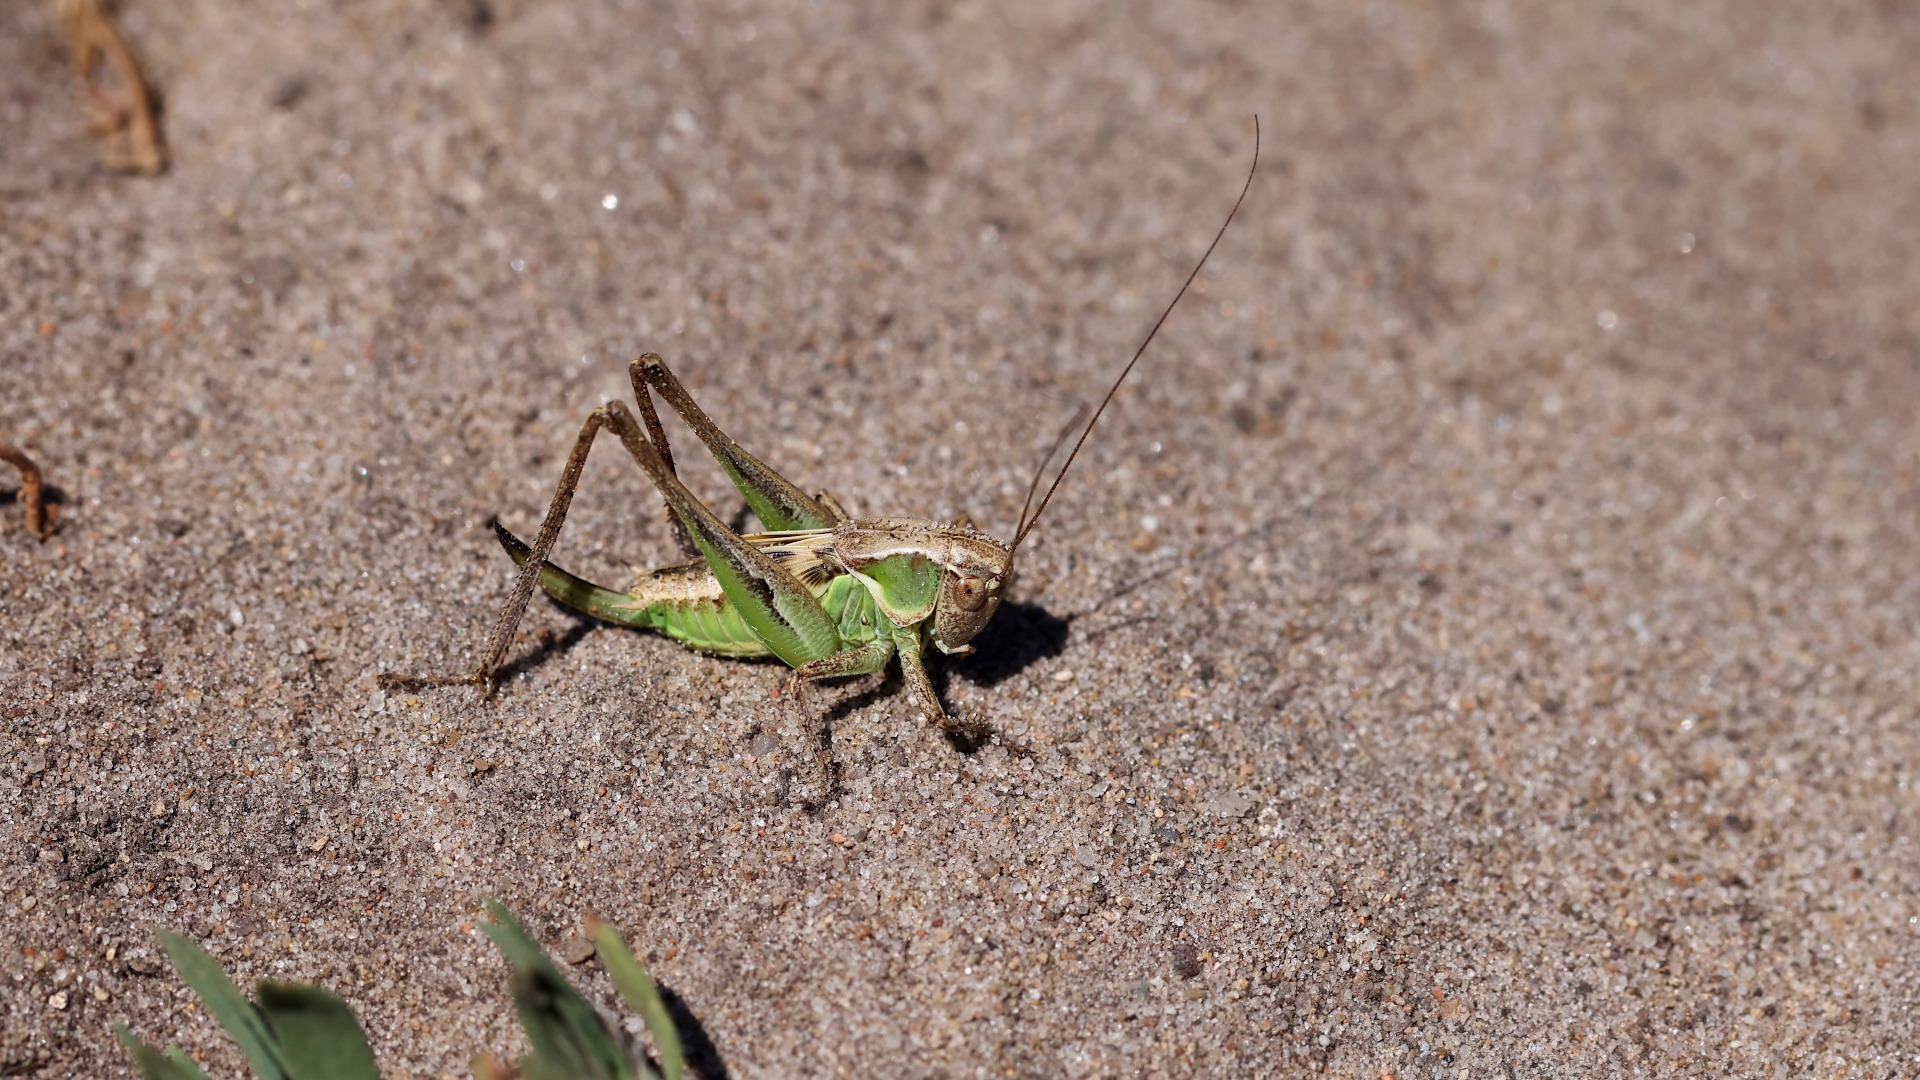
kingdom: Animalia
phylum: Arthropoda
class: Insecta
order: Orthoptera
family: Tettigoniidae
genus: Platycleis
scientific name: Platycleis albopunctata
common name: Sandgræshoppe
